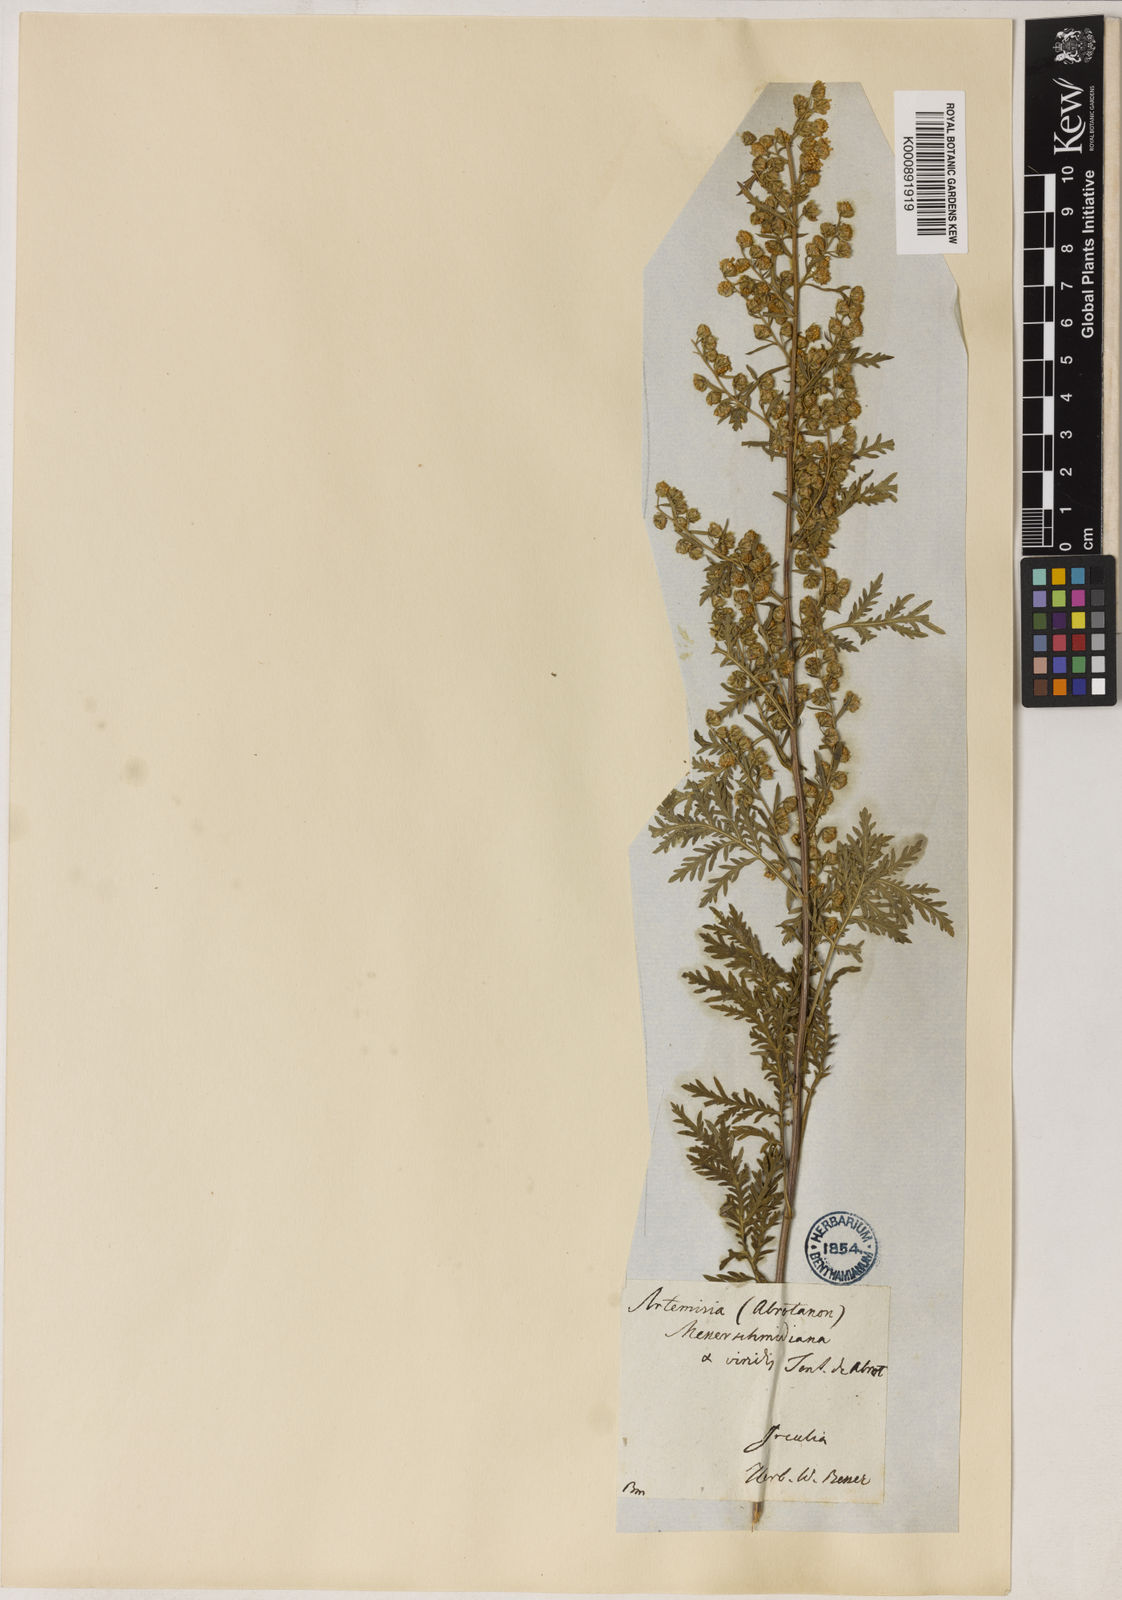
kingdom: Plantae
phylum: Tracheophyta
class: Magnoliopsida
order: Asterales
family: Asteraceae
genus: Artemisia
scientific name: Artemisia gmelinii
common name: Gmelin's wormwood
